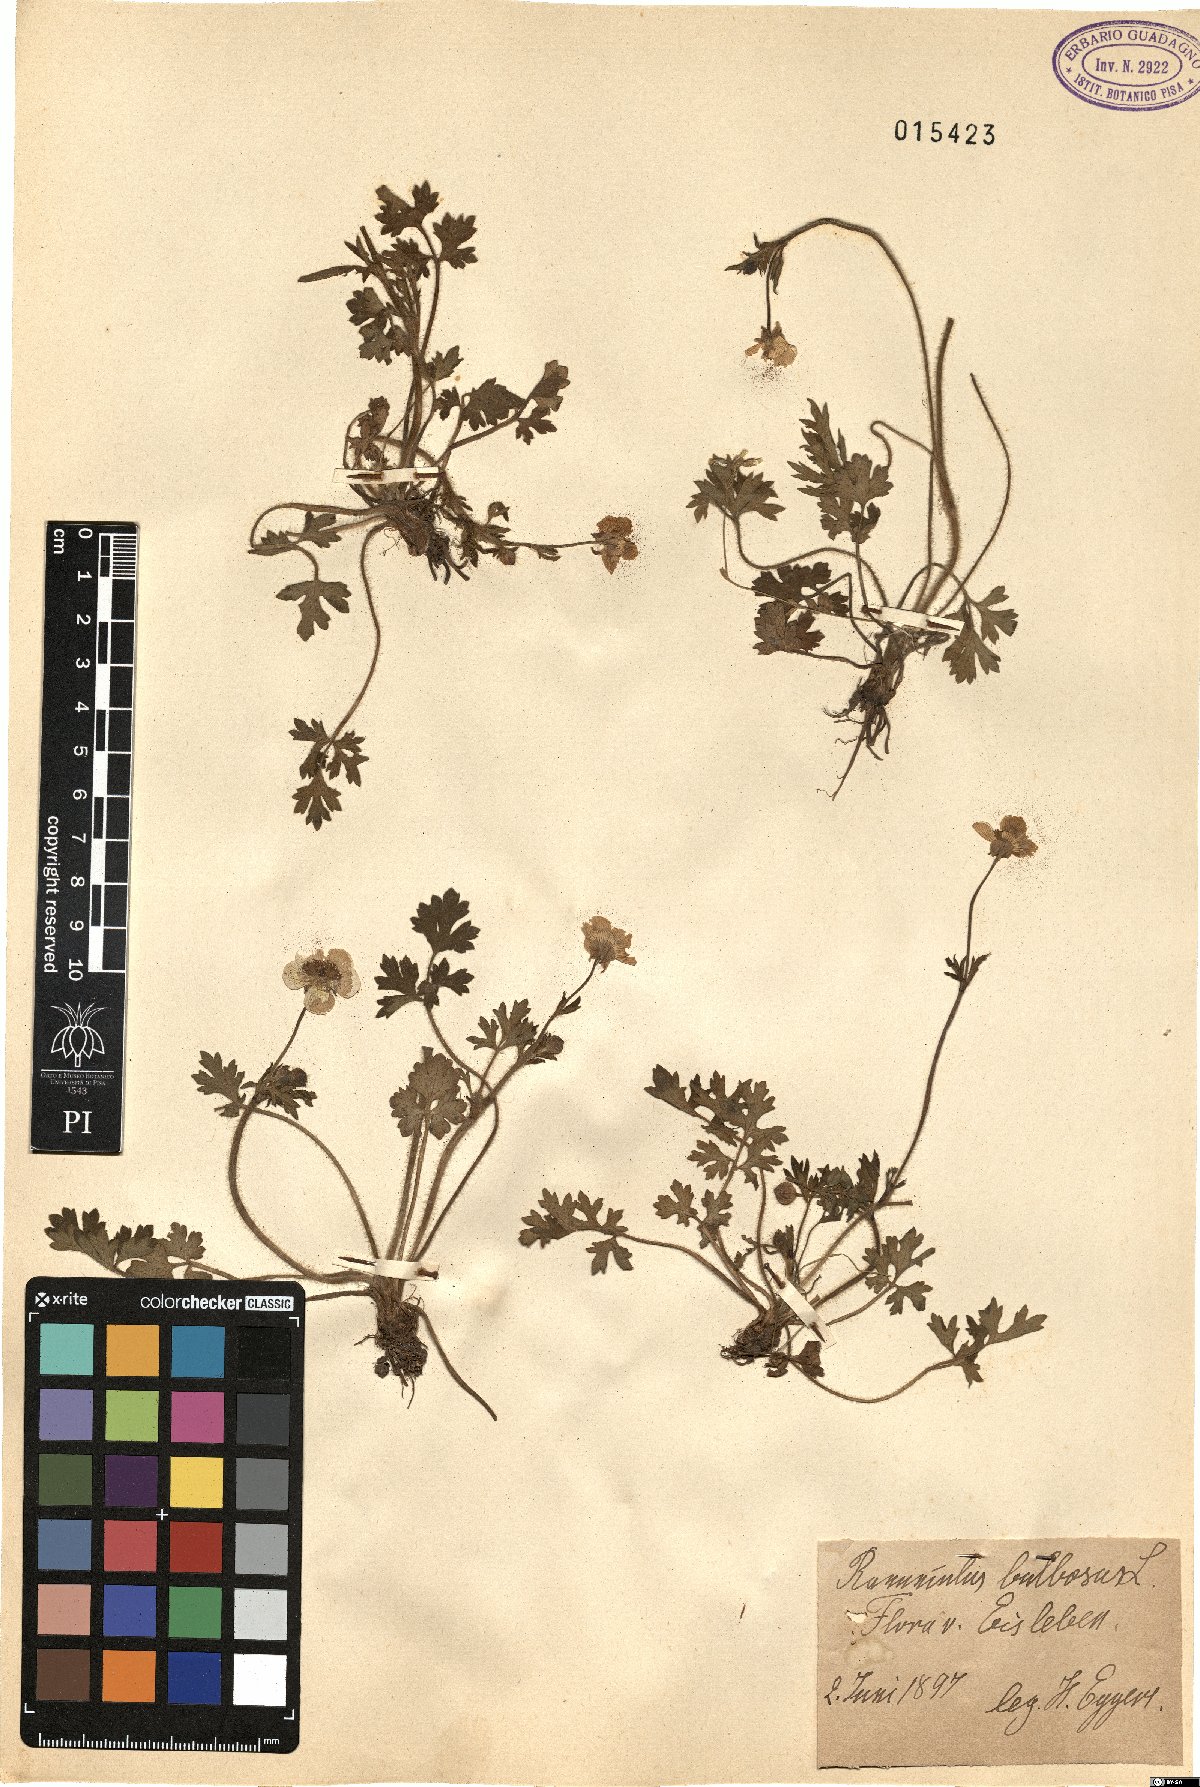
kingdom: Plantae
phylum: Tracheophyta
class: Magnoliopsida
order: Ranunculales
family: Ranunculaceae
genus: Ranunculus
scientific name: Ranunculus bulbosus
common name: Bulbous buttercup
